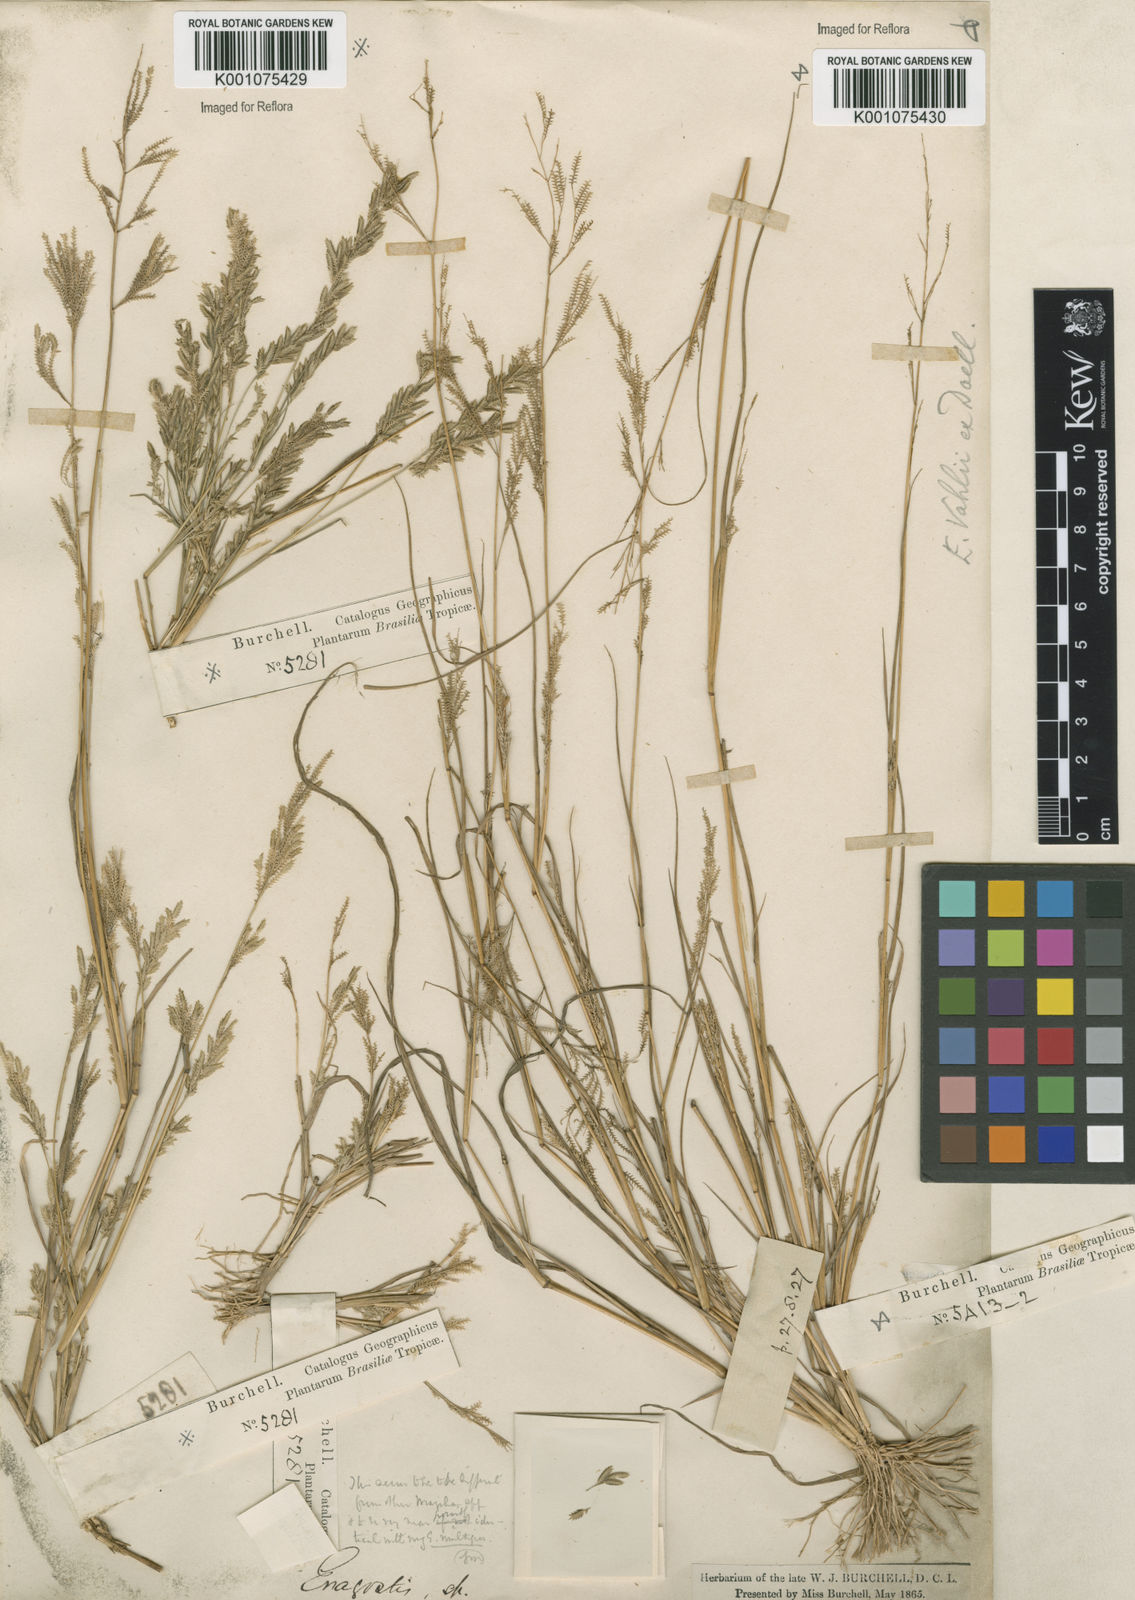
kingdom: Plantae
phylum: Tracheophyta
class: Liliopsida
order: Poales
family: Poaceae
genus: Eragrostis
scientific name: Eragrostis rufescens
